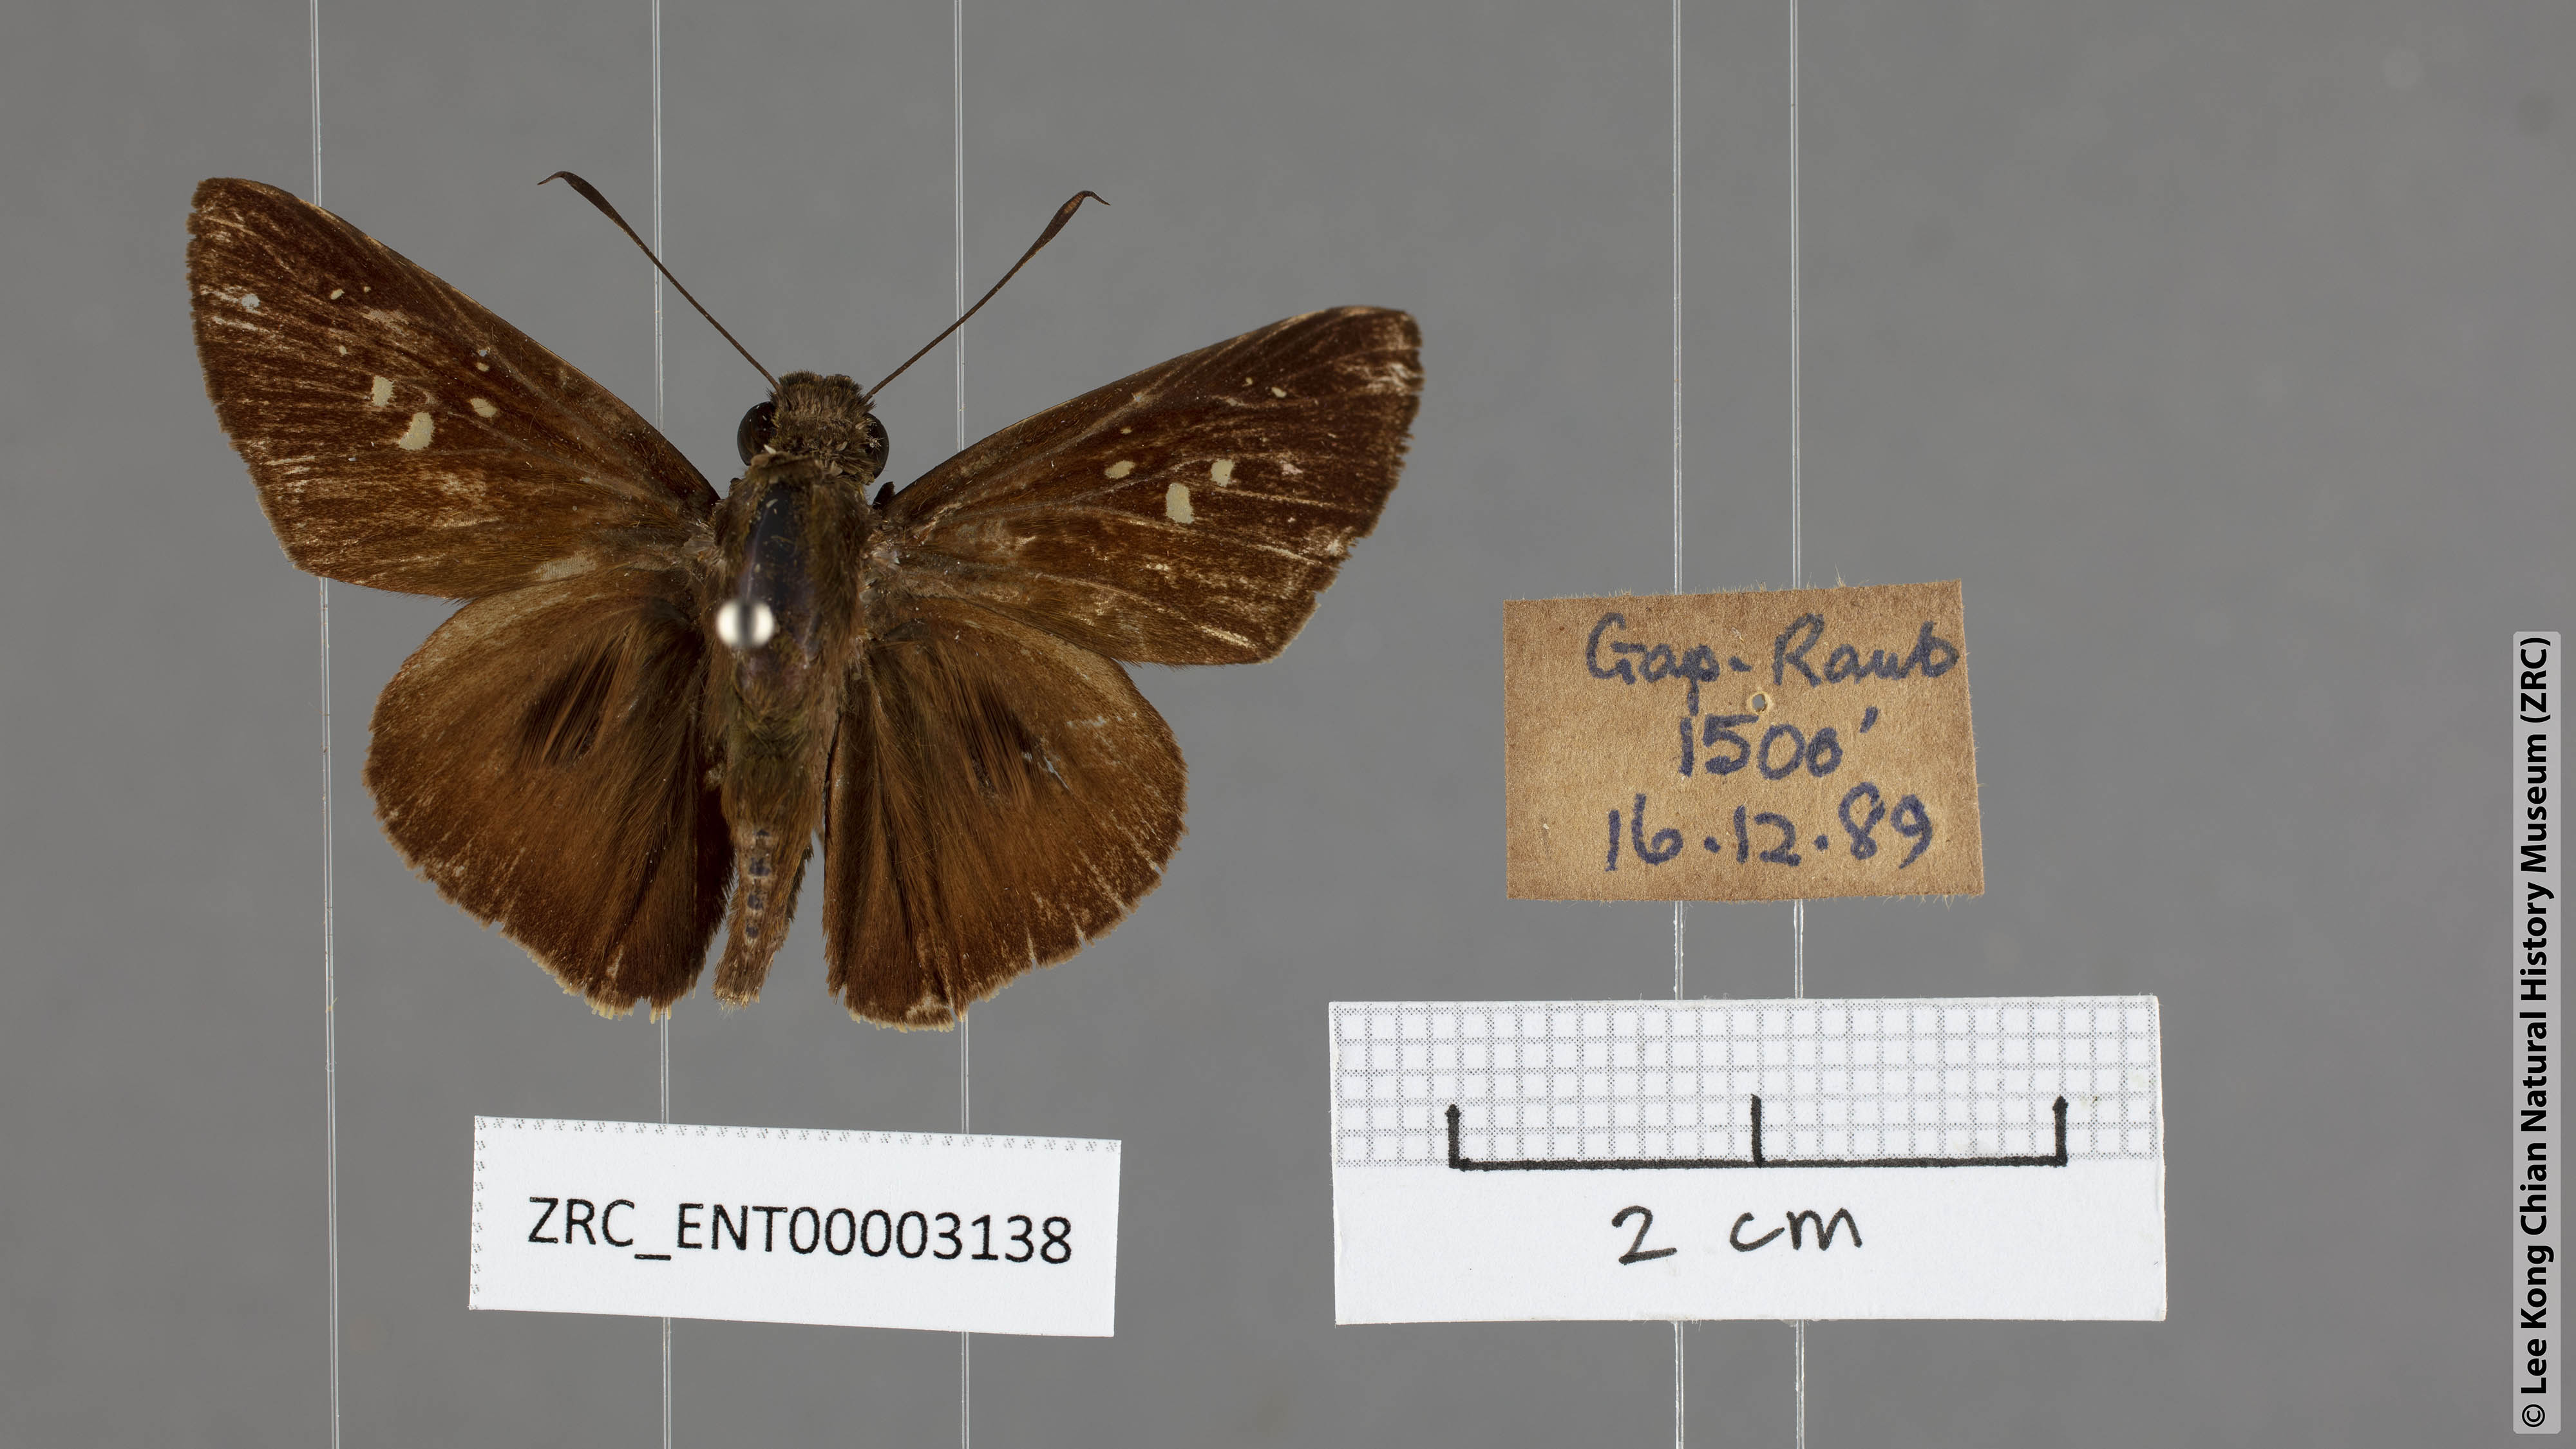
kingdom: Animalia
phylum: Arthropoda
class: Insecta
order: Lepidoptera
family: Hesperiidae
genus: Baoris
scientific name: Baoris oceia
